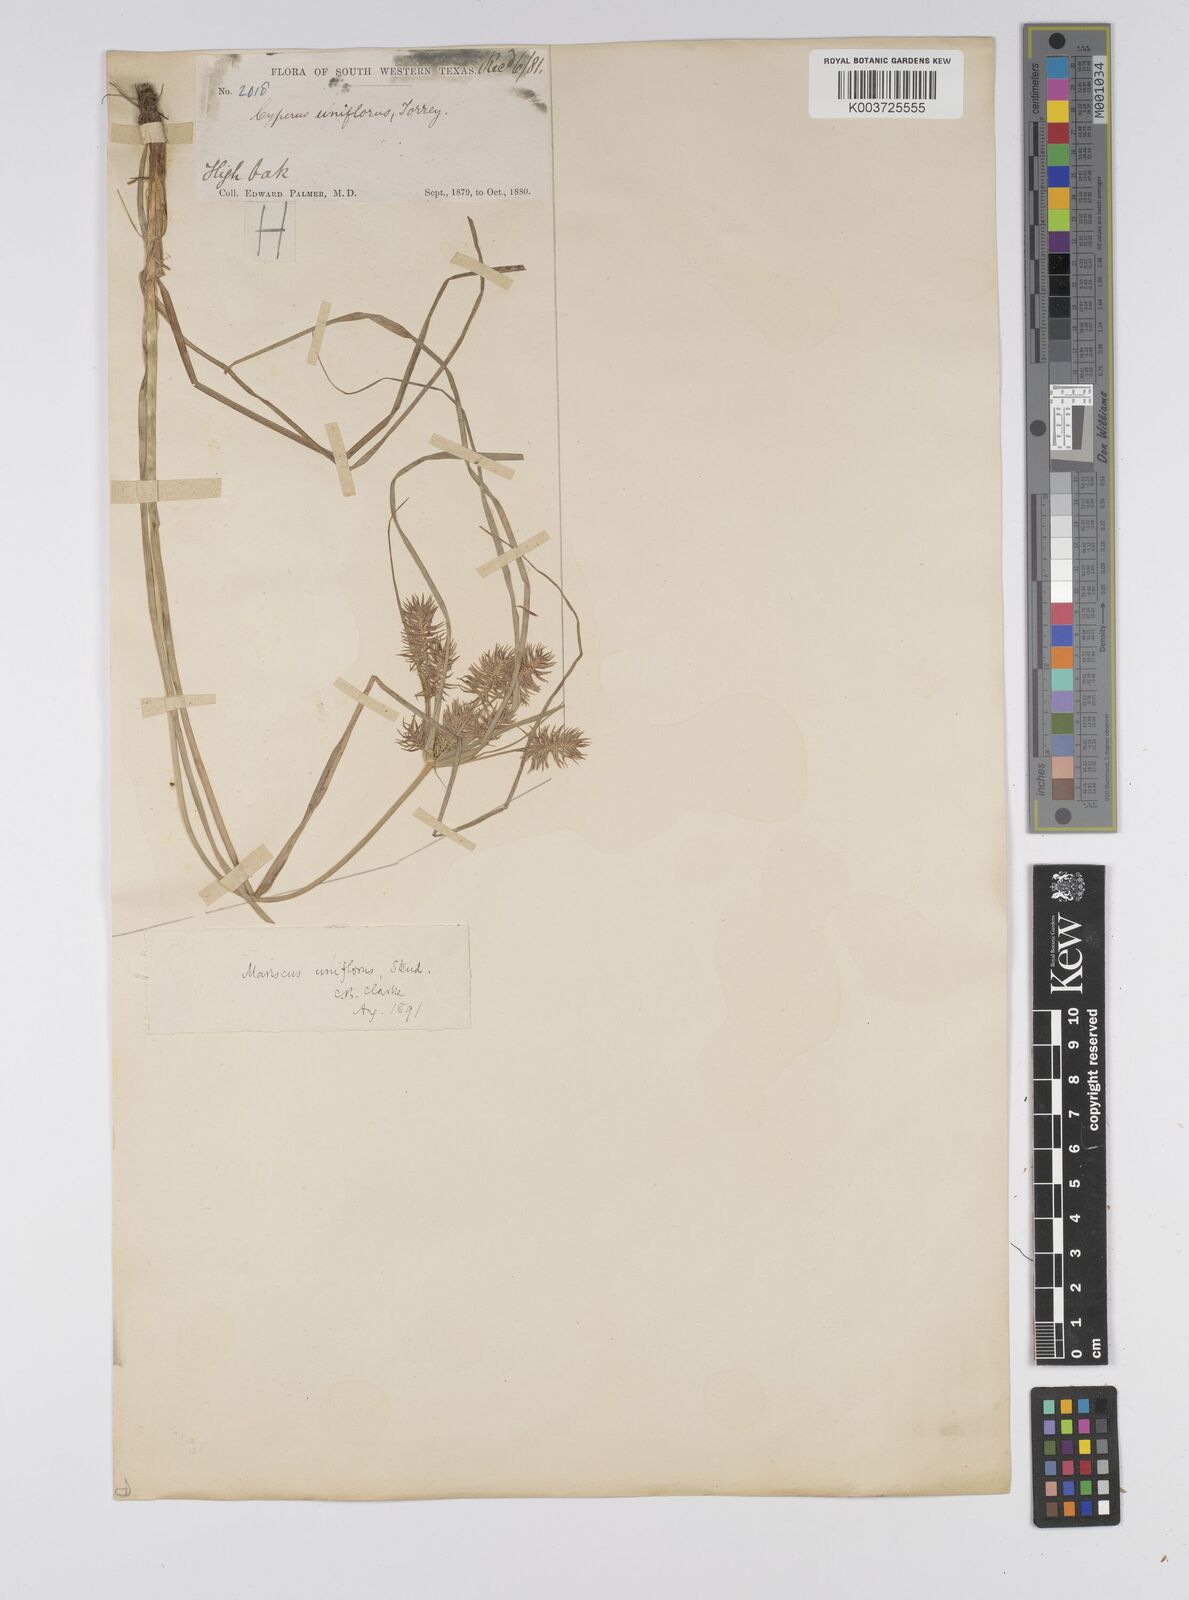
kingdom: Plantae
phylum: Tracheophyta
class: Liliopsida
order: Poales
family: Cyperaceae
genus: Cyperus
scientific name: Cyperus retroflexus
